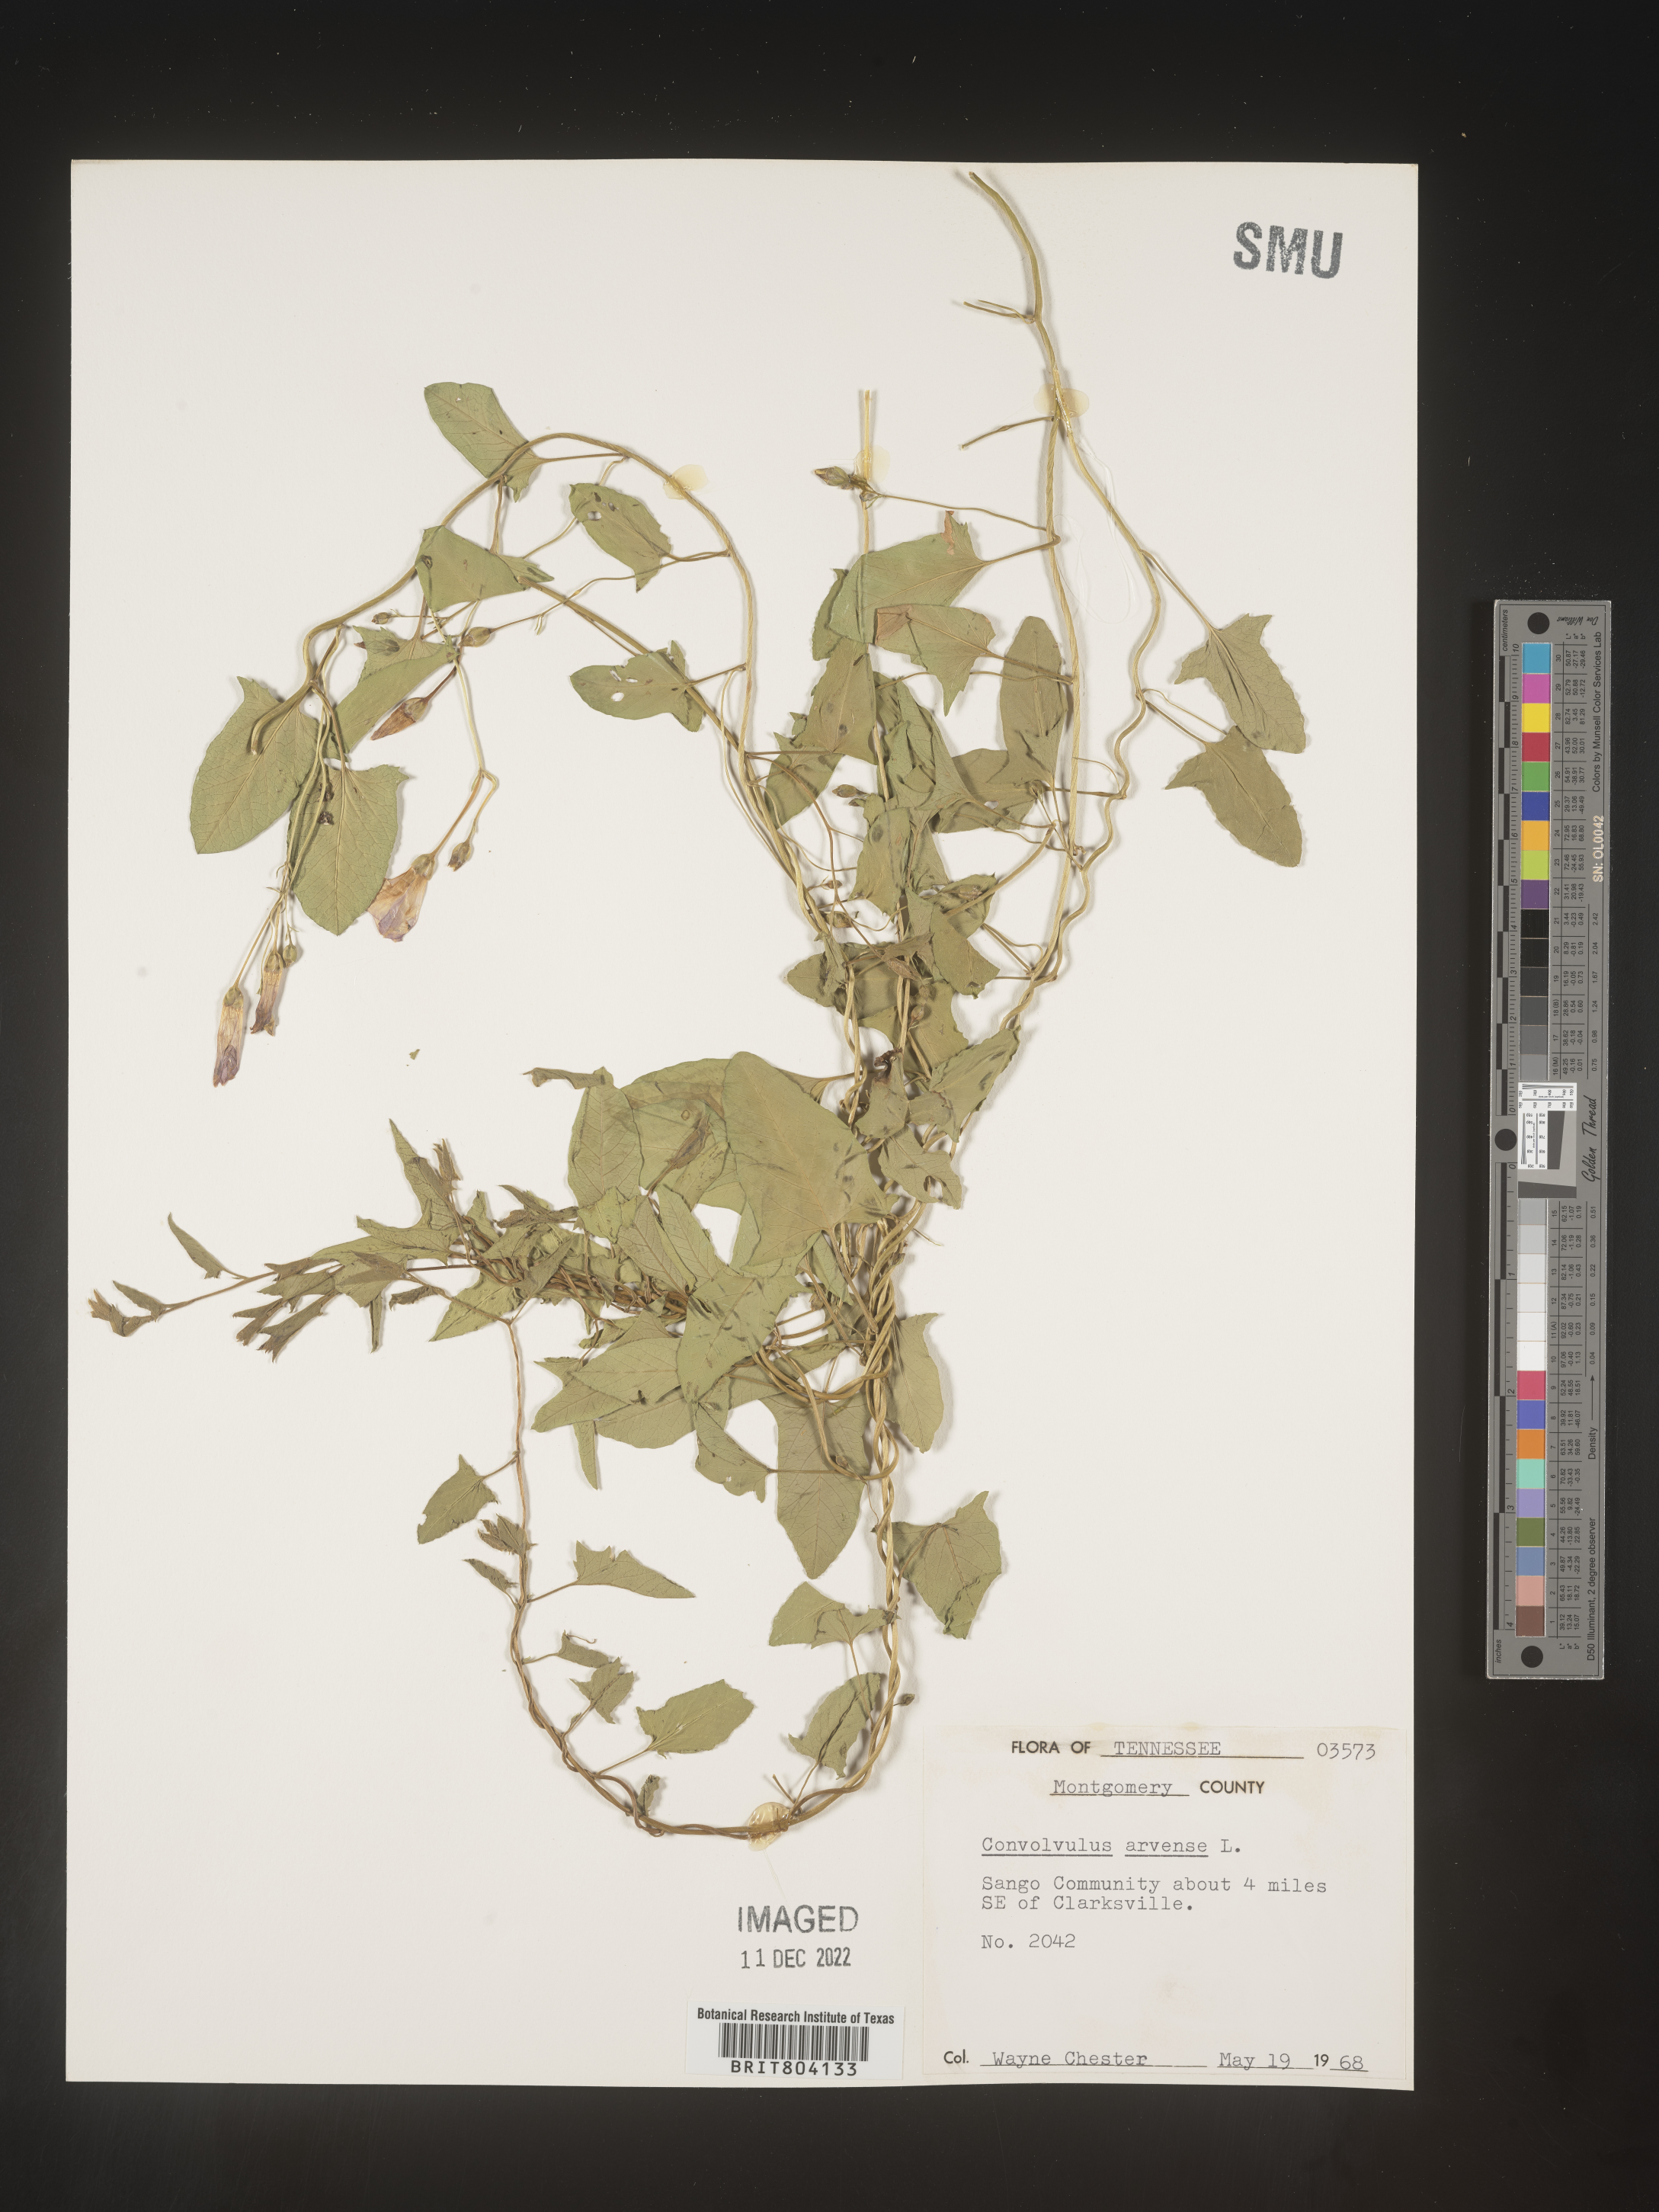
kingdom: Plantae
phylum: Tracheophyta
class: Magnoliopsida
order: Solanales
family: Convolvulaceae
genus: Convolvulus
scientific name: Convolvulus arvensis
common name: Field bindweed
